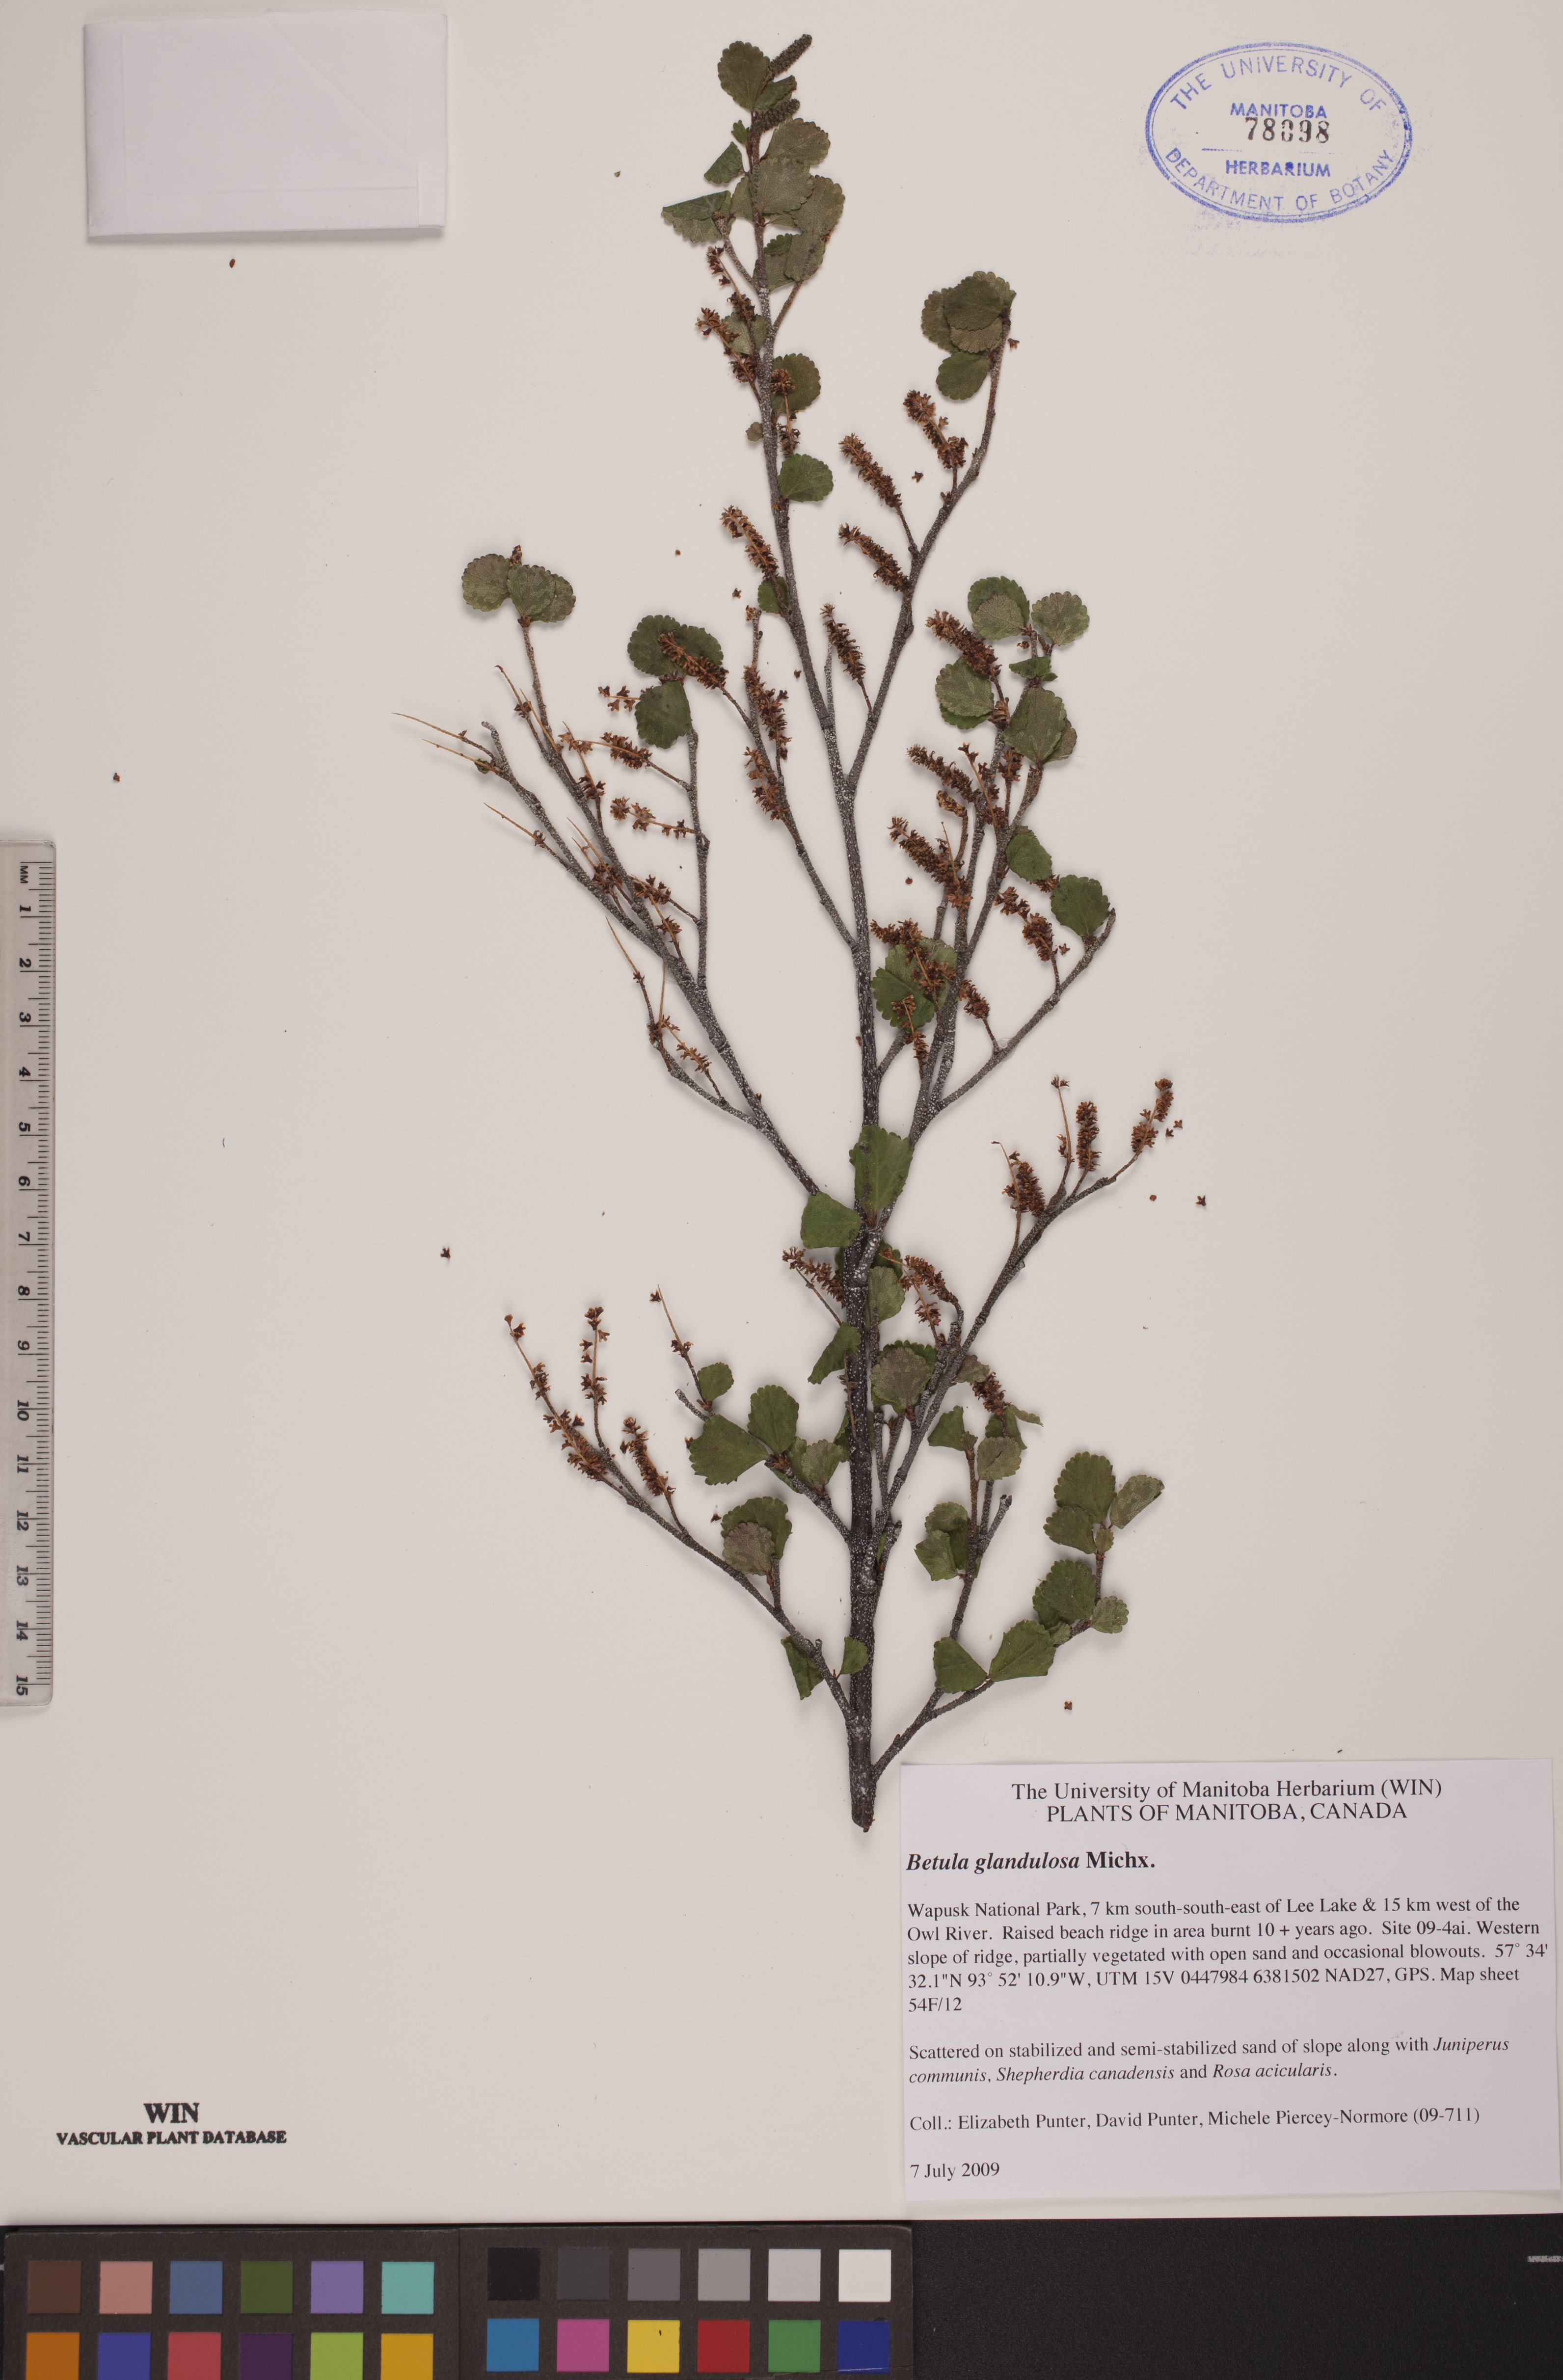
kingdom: Plantae
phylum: Tracheophyta
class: Magnoliopsida
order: Fagales
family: Betulaceae
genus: Betula
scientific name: Betula glandulosa
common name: Dwarf birch
